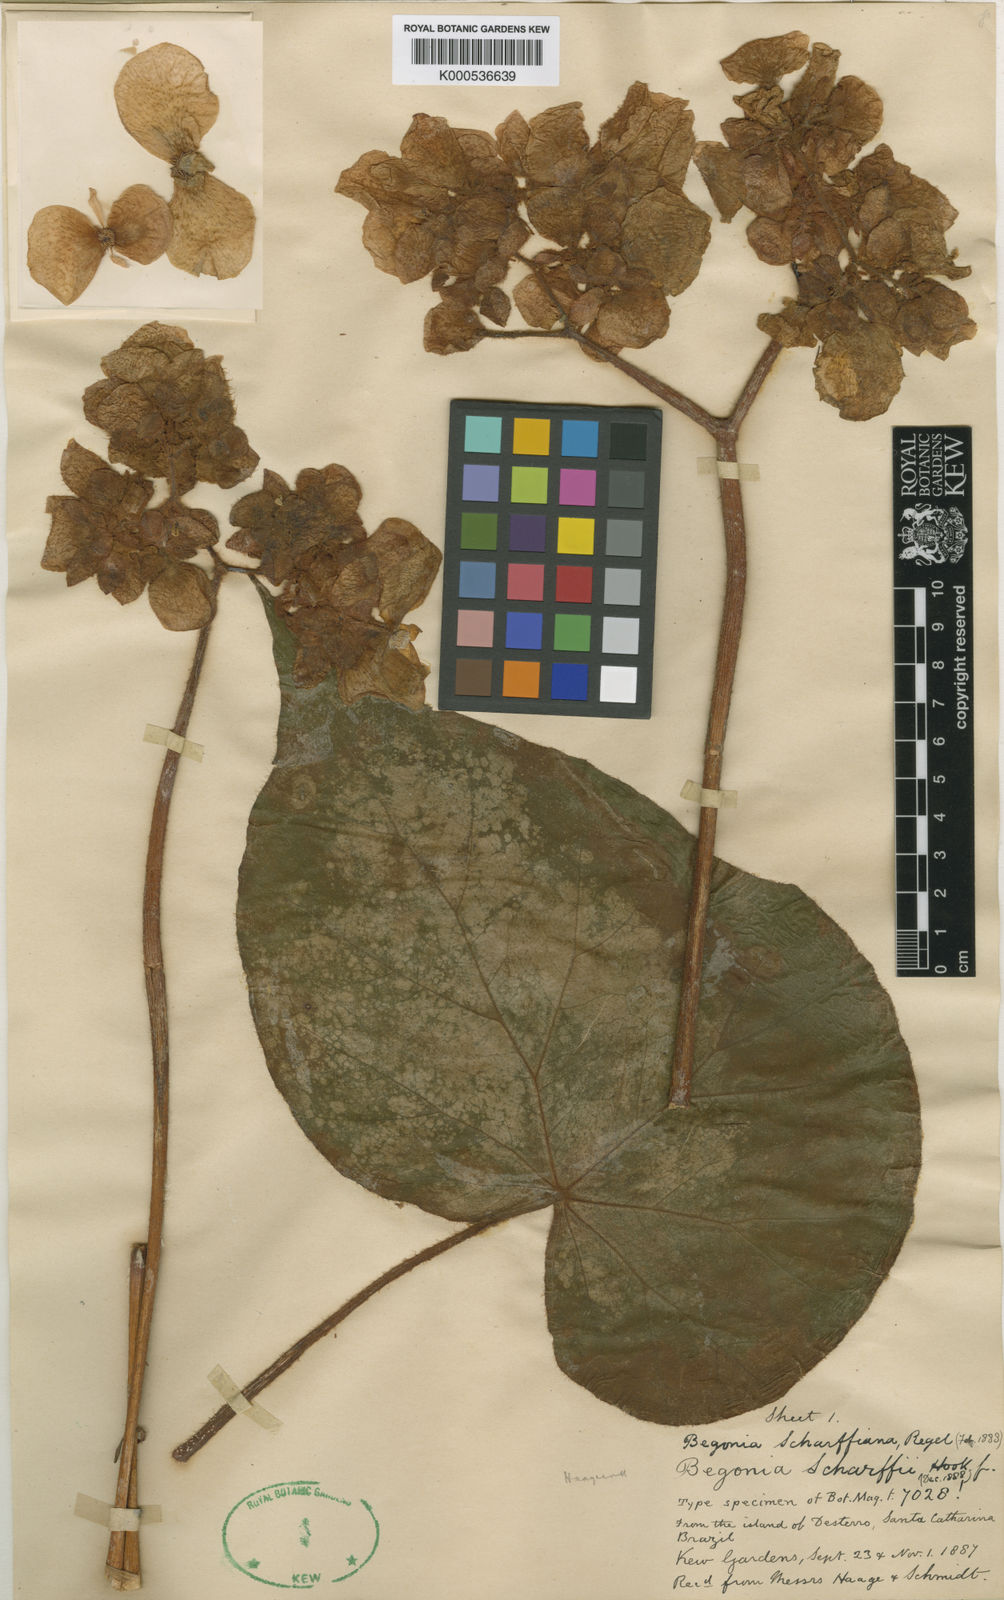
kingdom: Plantae
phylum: Tracheophyta
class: Magnoliopsida
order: Cucurbitales
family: Begoniaceae
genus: Begonia
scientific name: Begonia haageana
